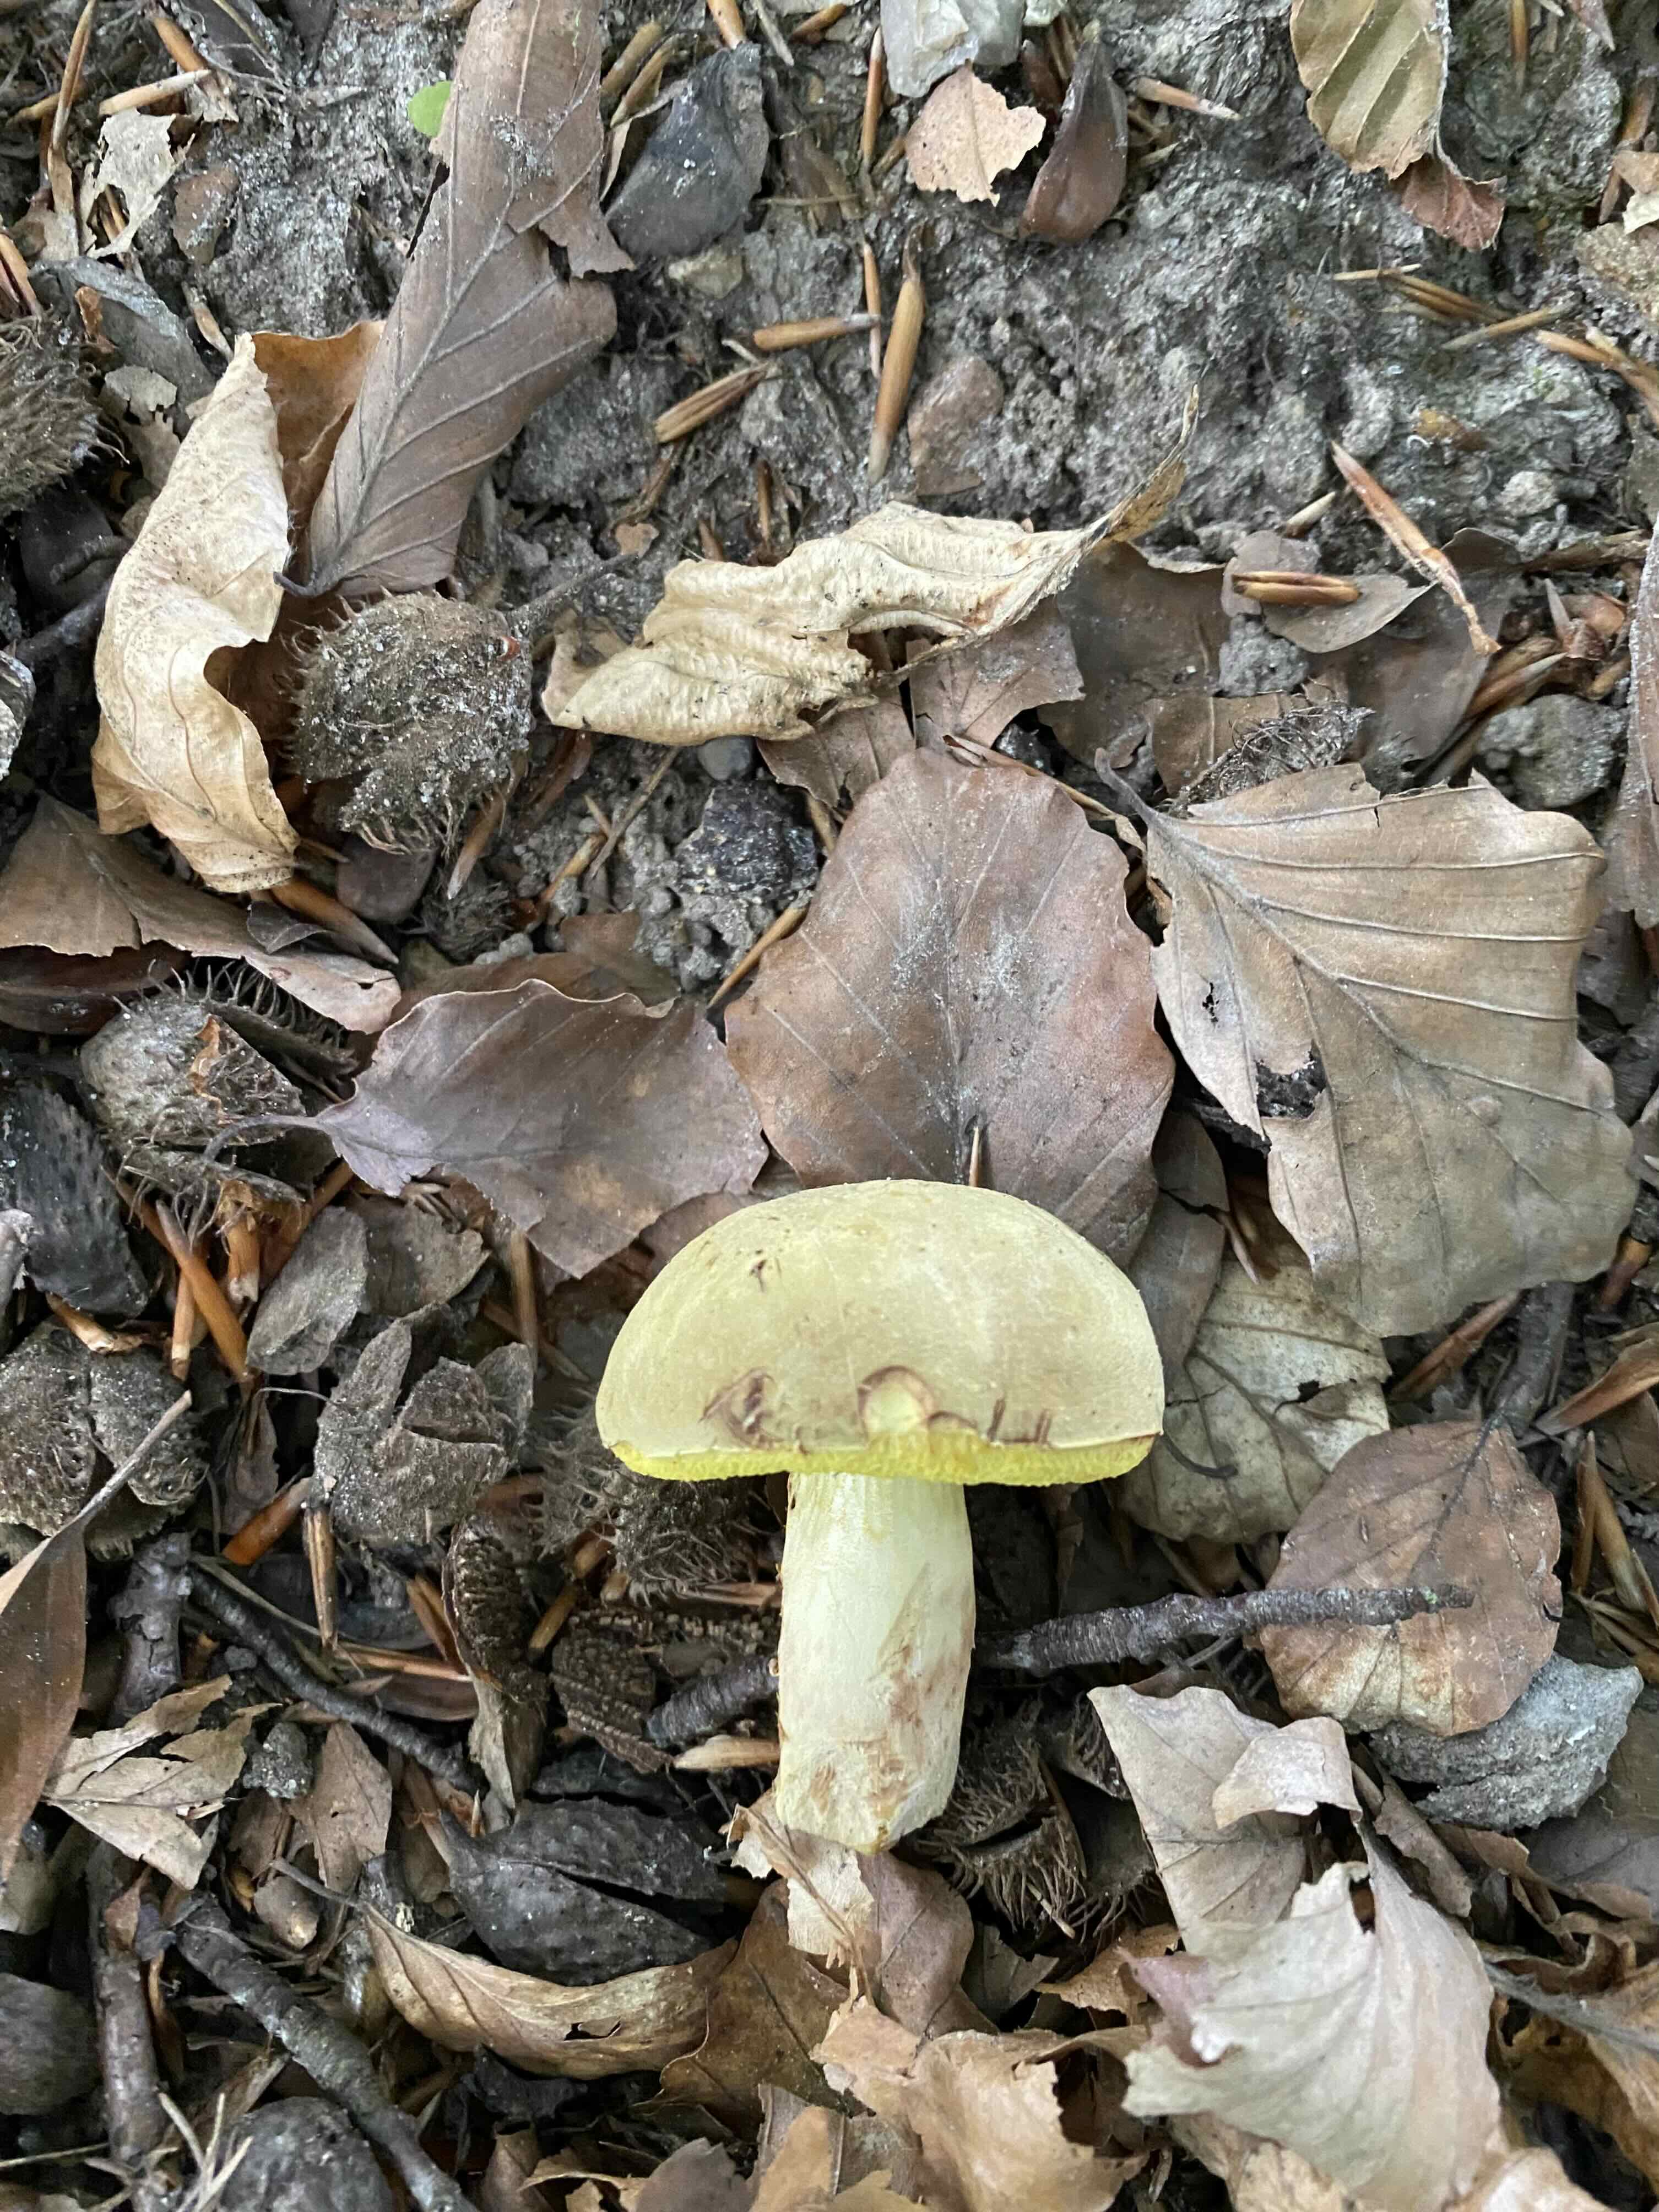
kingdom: Fungi
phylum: Basidiomycota
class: Agaricomycetes
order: Boletales
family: Boletaceae
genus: Xerocomus
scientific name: Xerocomus
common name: filtrørhat
